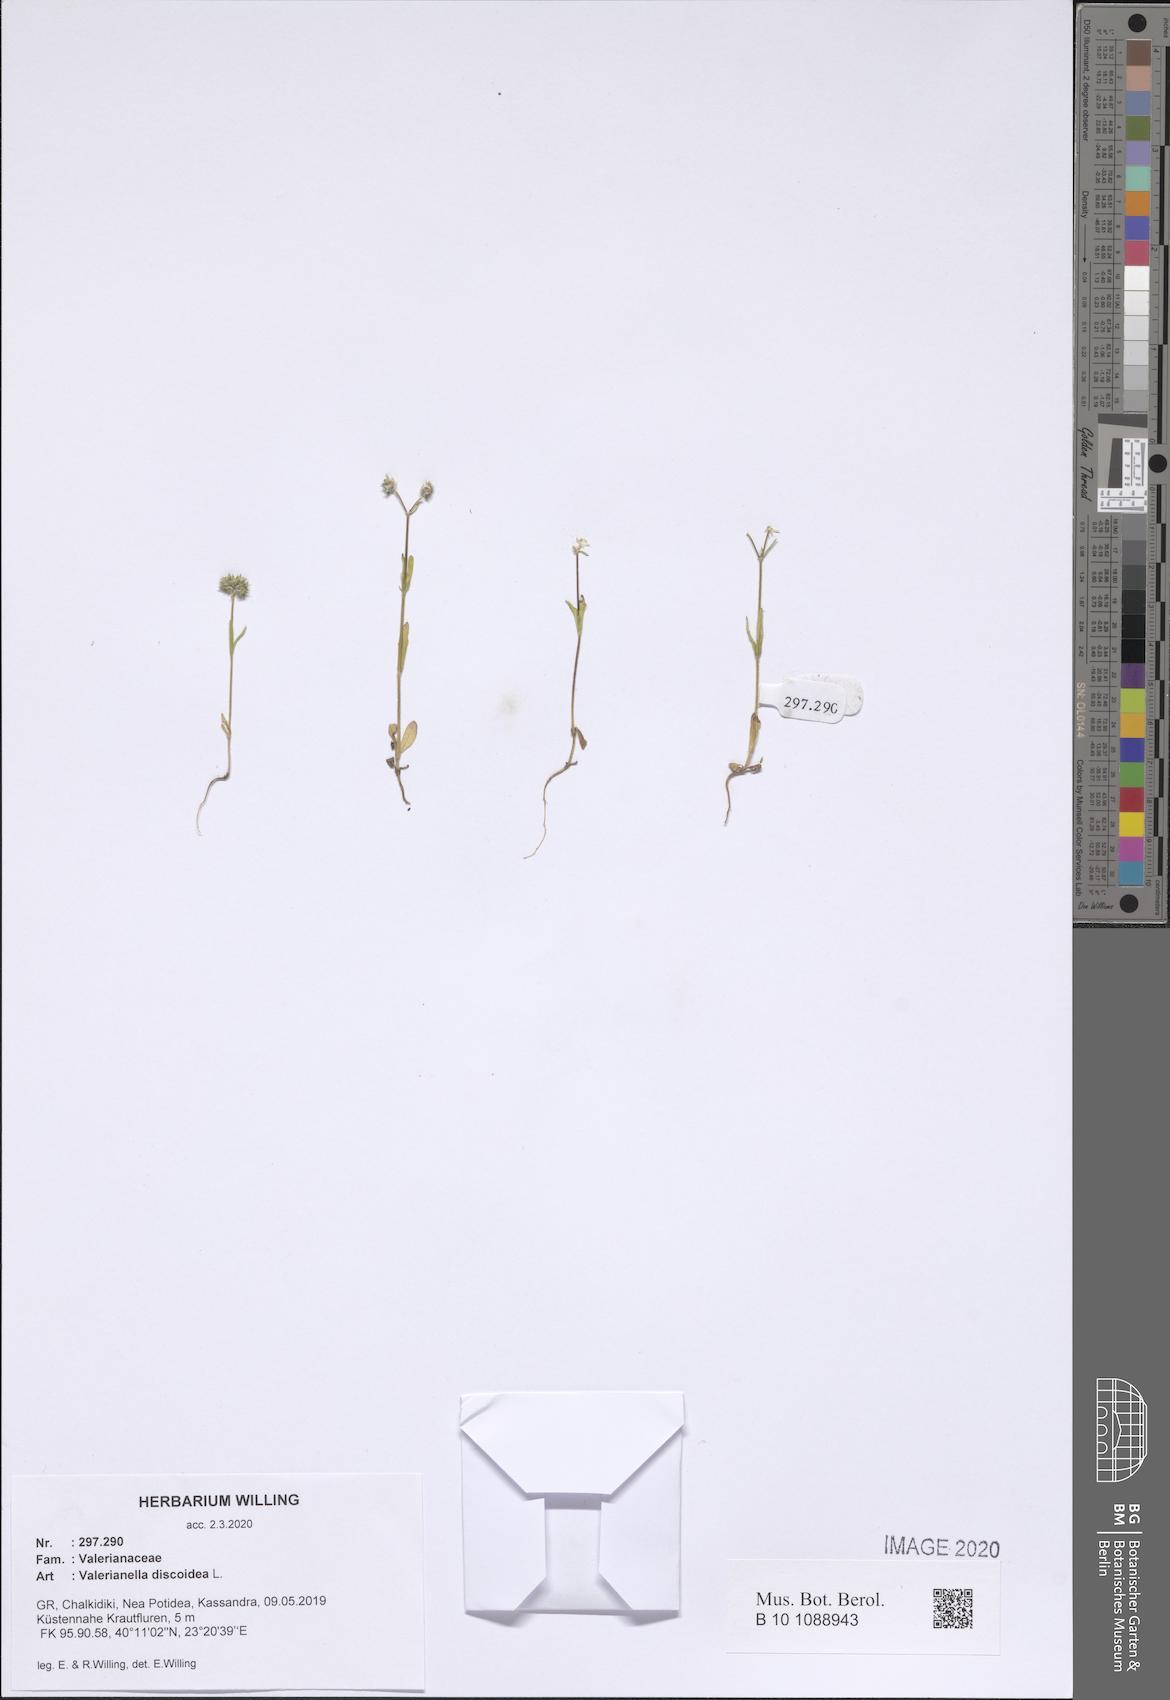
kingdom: Plantae
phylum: Tracheophyta
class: Magnoliopsida
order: Dipsacales
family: Caprifoliaceae
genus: Valerianella
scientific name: Valerianella discoidea
